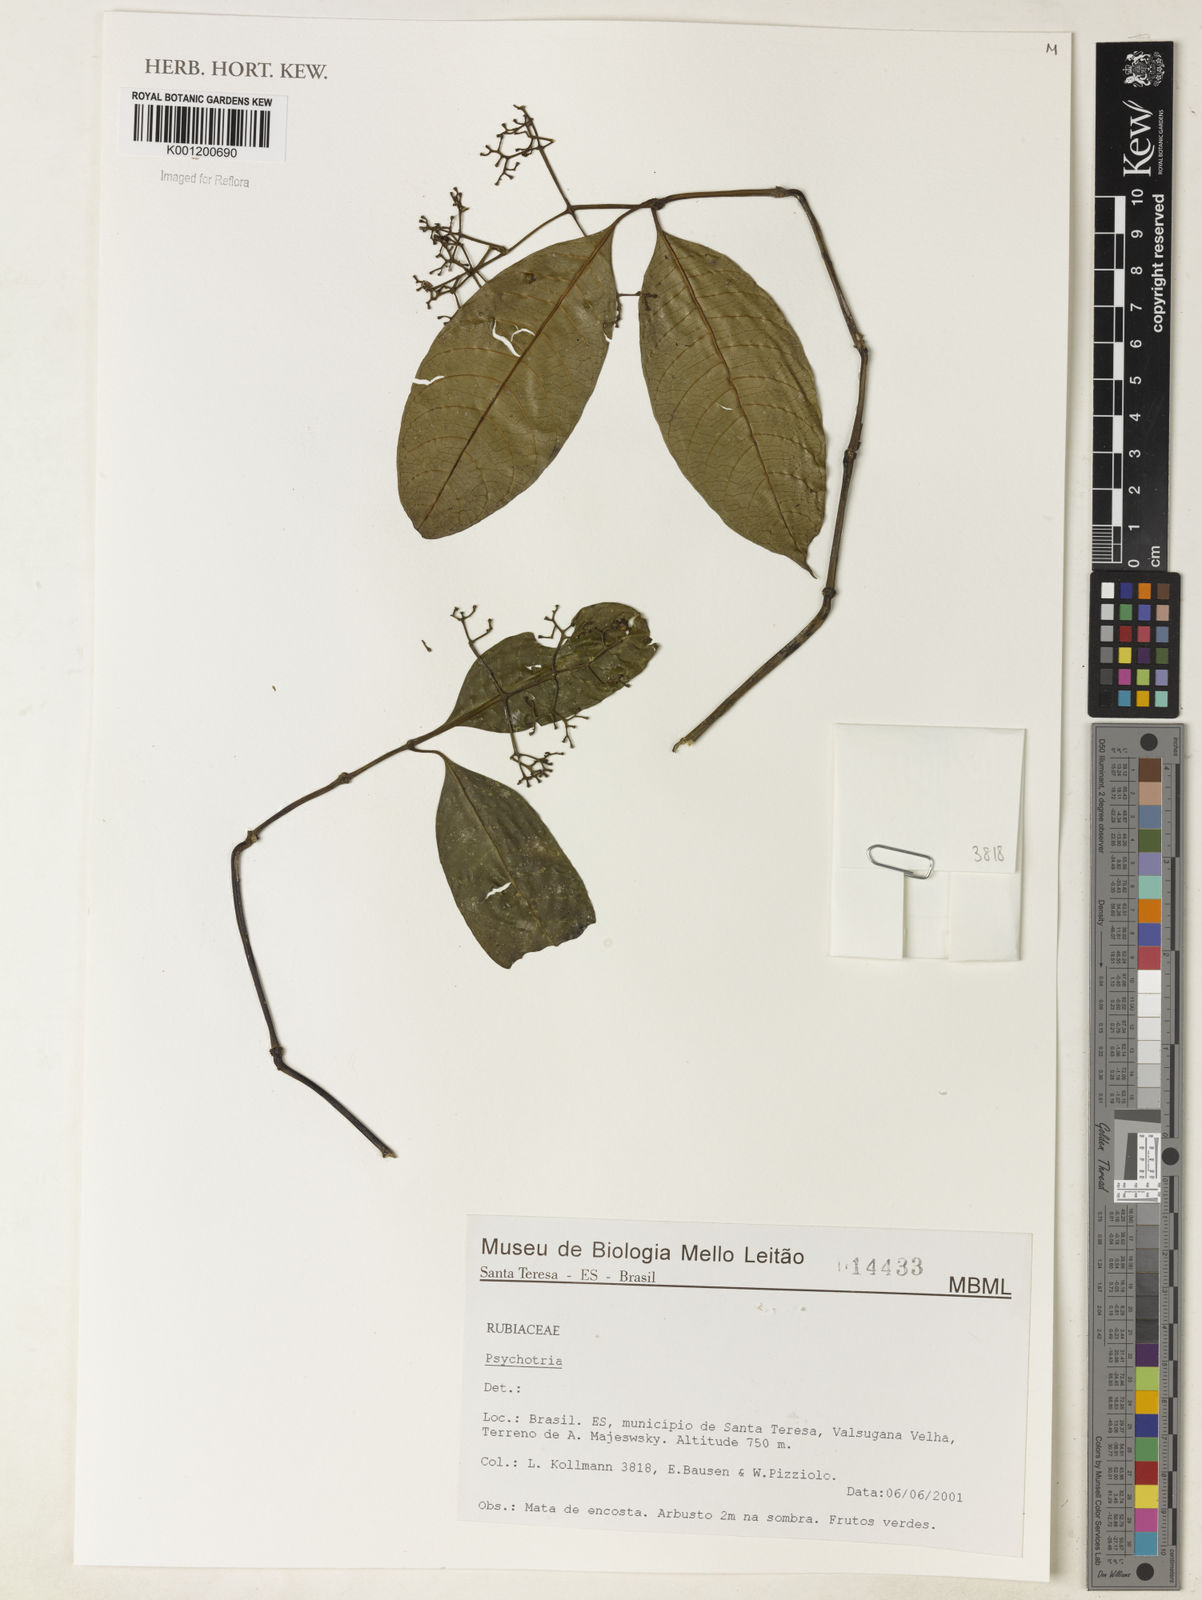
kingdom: Plantae
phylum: Tracheophyta
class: Magnoliopsida
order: Gentianales
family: Rubiaceae
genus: Psychotria
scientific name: Psychotria
